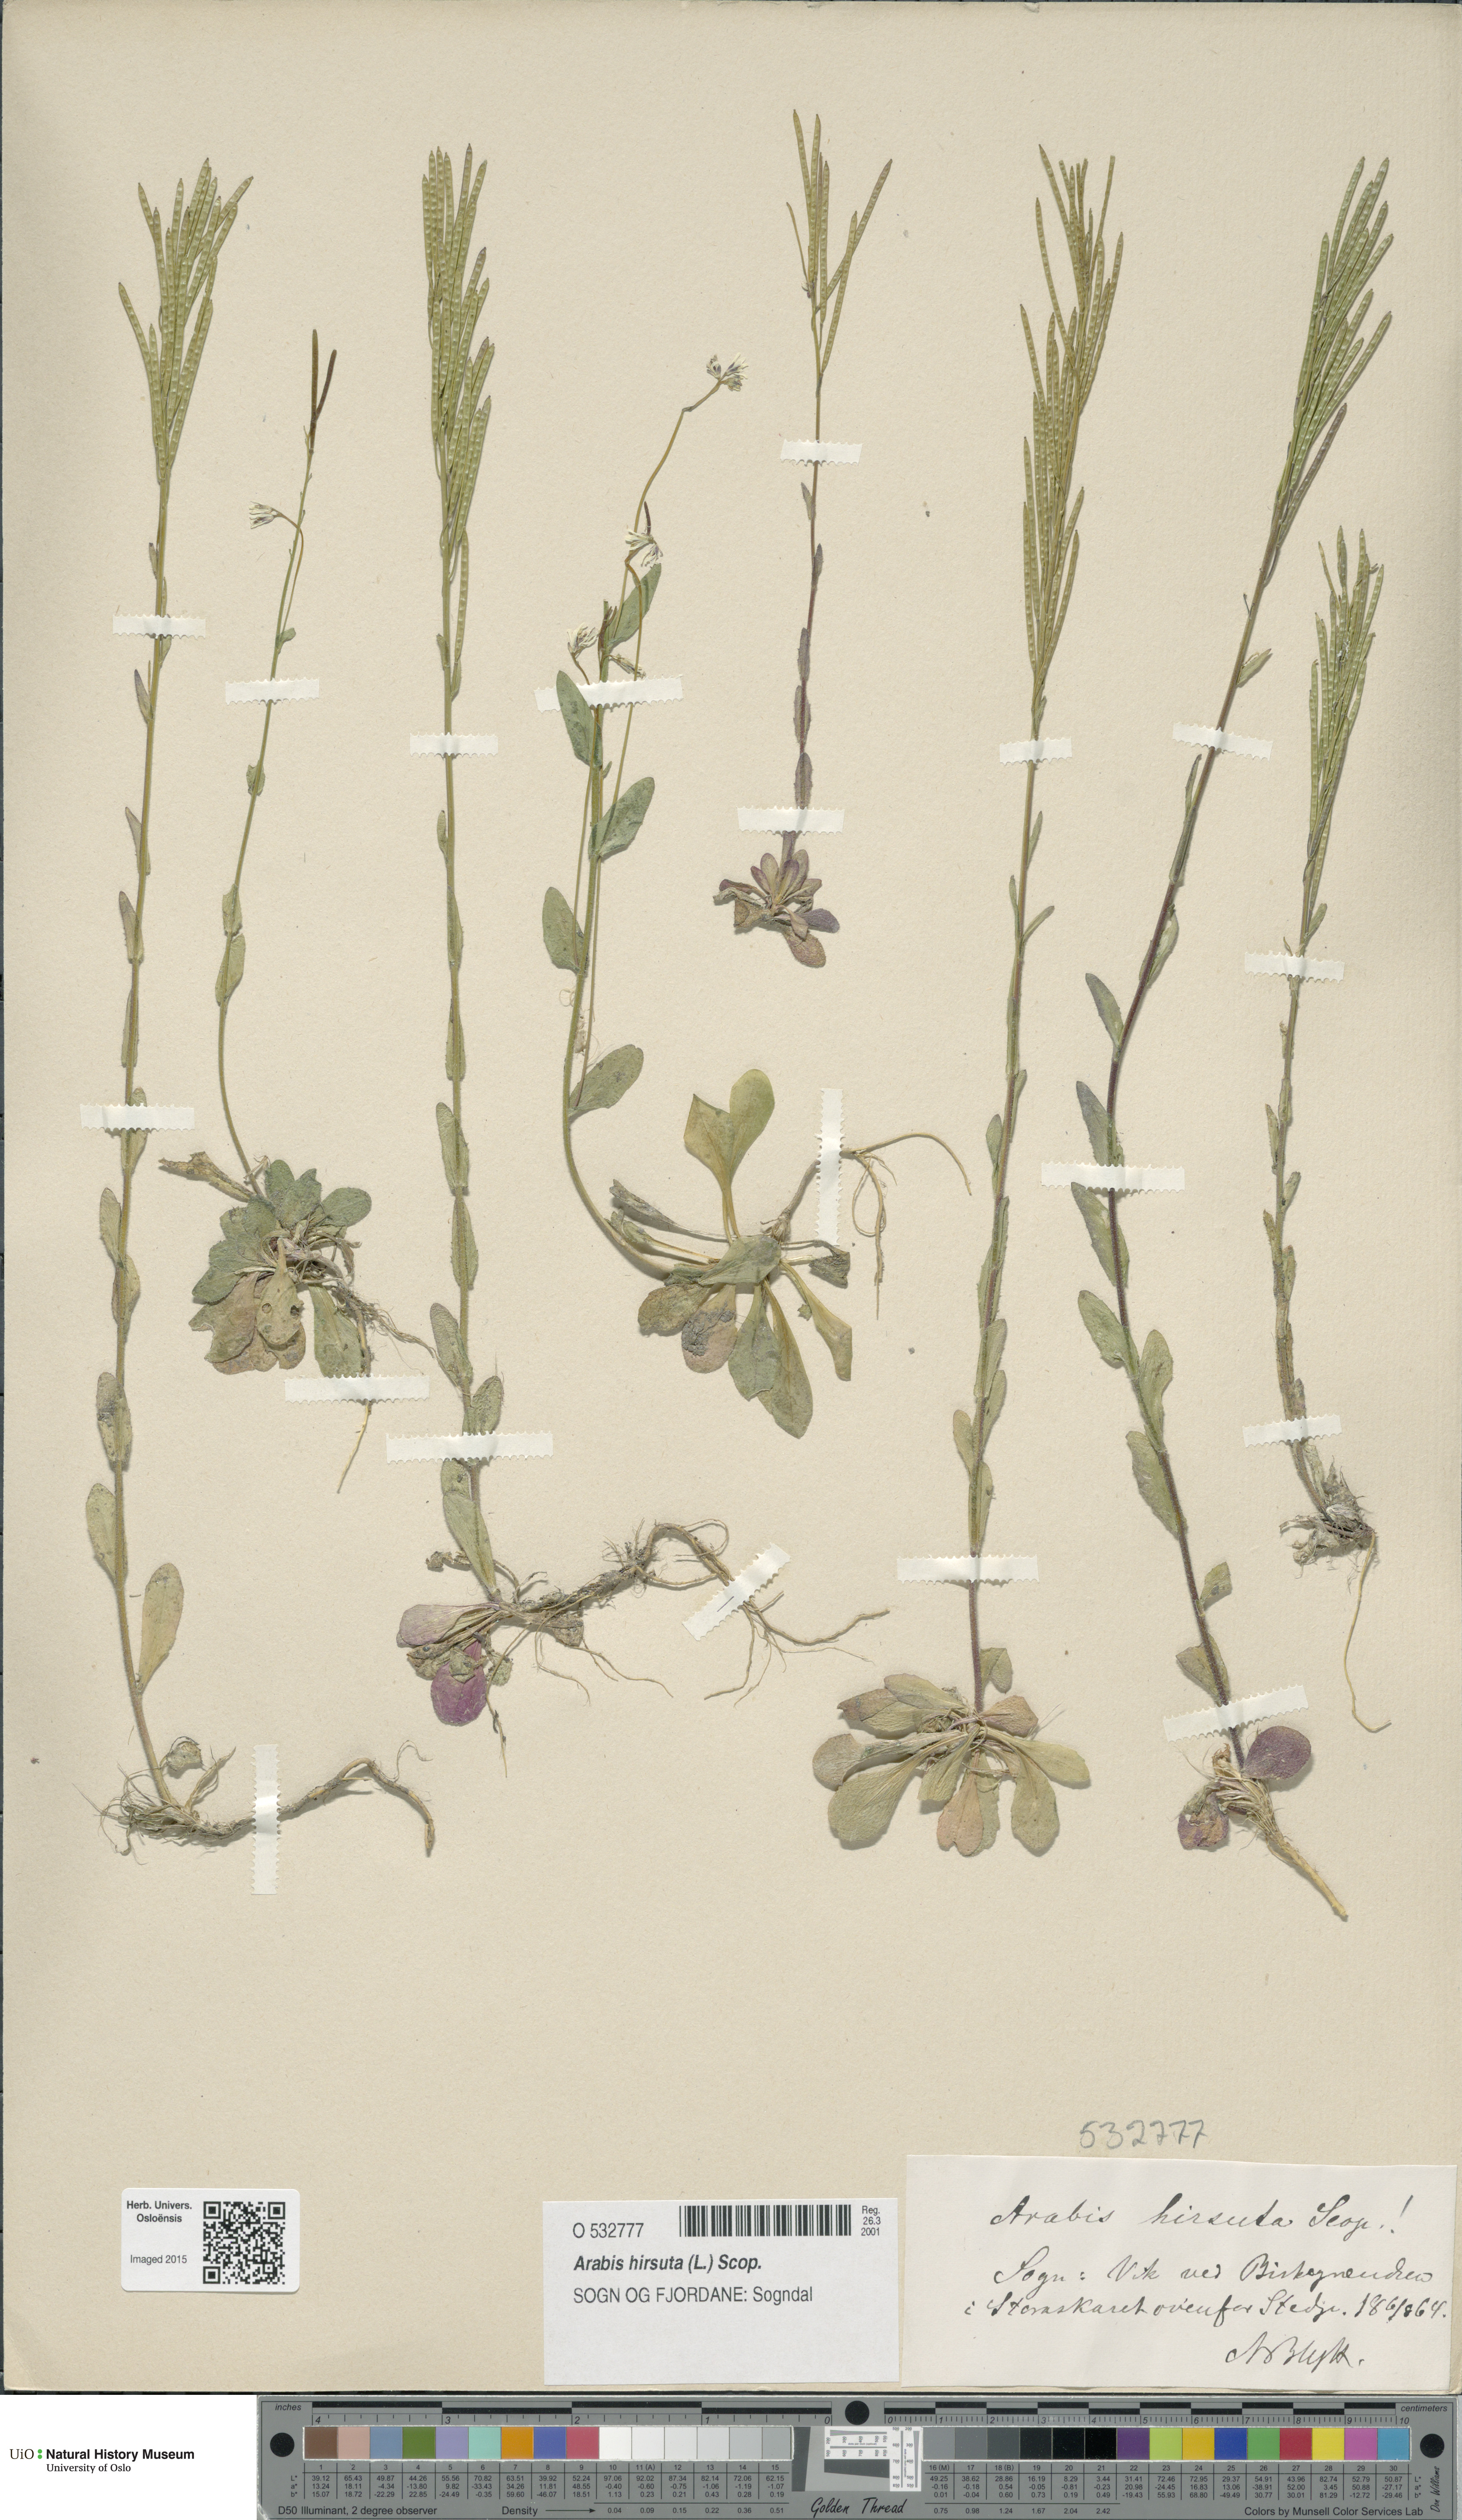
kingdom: Plantae
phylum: Tracheophyta
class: Magnoliopsida
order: Brassicales
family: Brassicaceae
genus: Arabis
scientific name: Arabis hirsuta
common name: Hairy rock-cress
